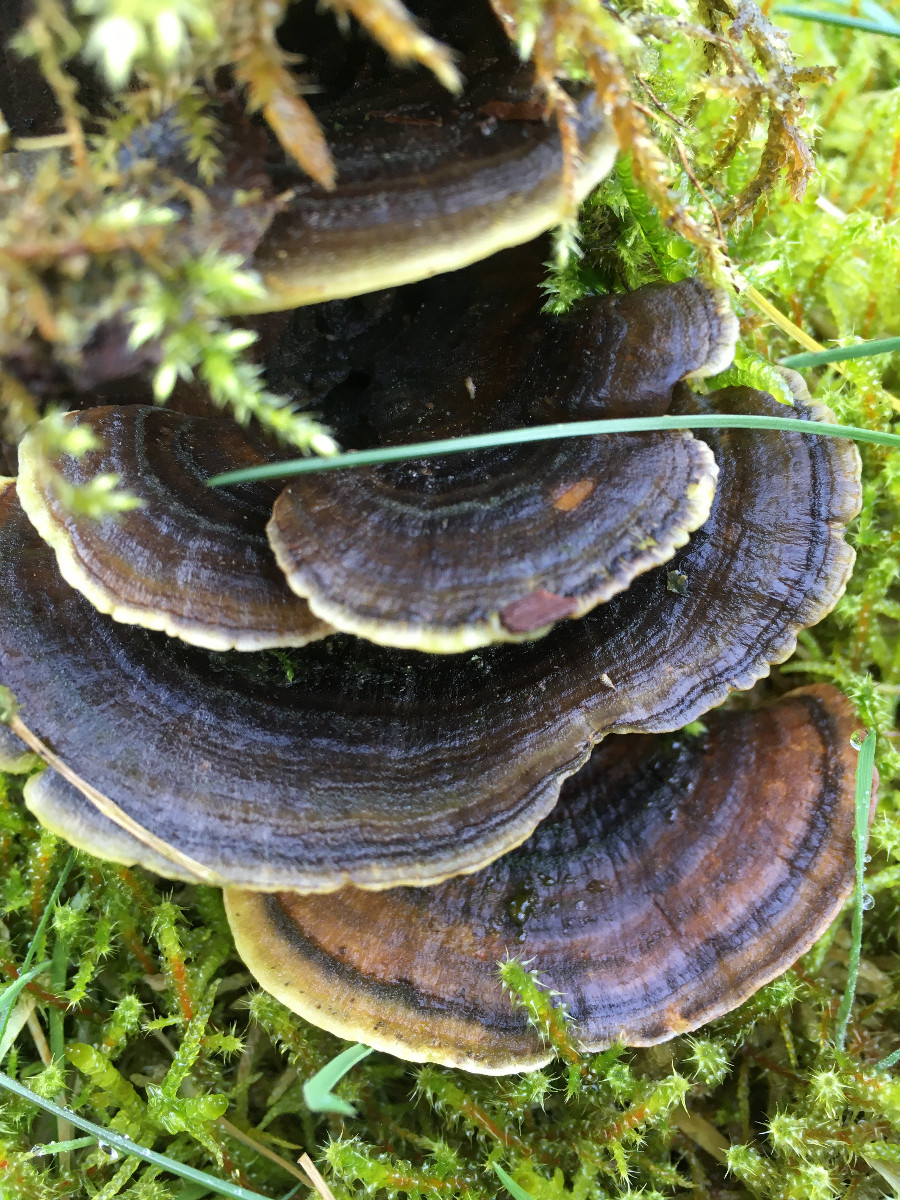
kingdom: Fungi
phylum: Basidiomycota
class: Agaricomycetes
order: Polyporales
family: Polyporaceae
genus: Trametes
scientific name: Trametes versicolor
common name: broget læderporesvamp
